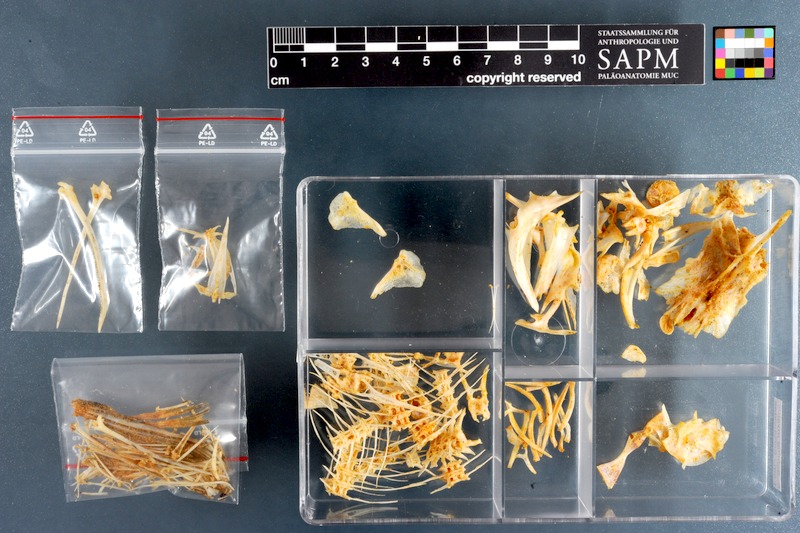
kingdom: Animalia
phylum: Chordata
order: Siluriformes
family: Schilbeidae
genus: Schilbe
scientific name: Schilbe mystus
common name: Silver catfish
